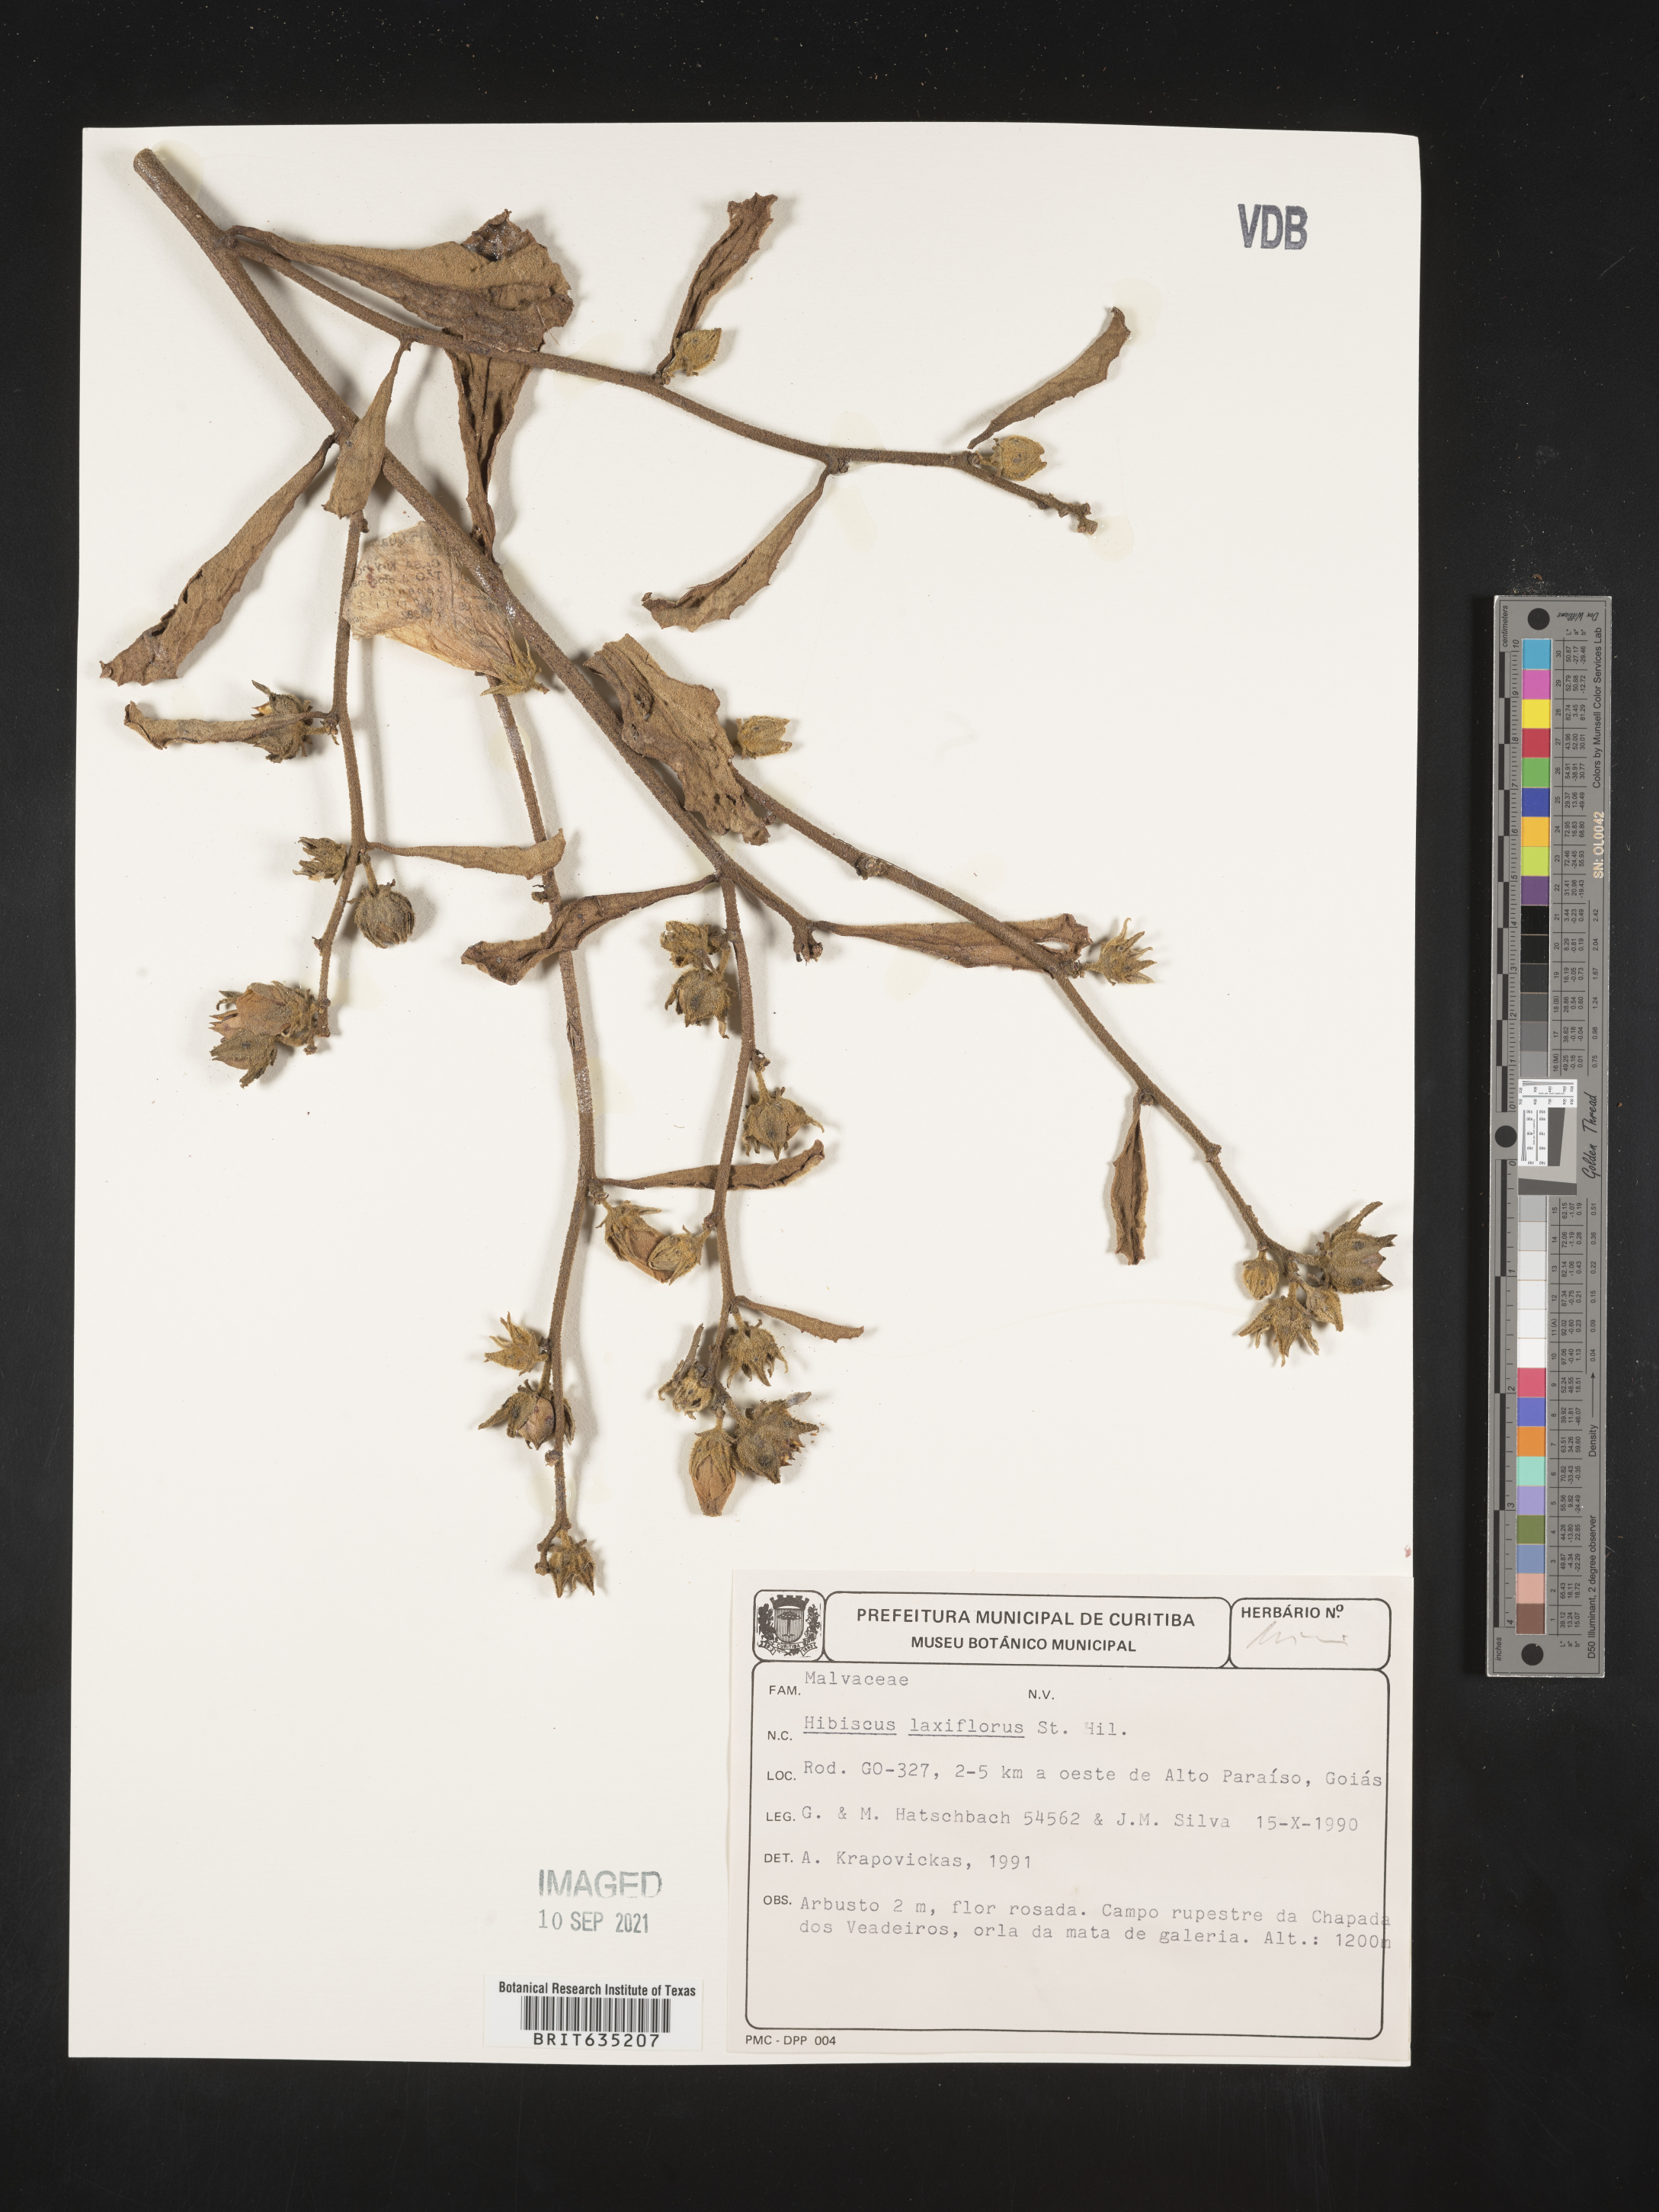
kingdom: Plantae
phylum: Tracheophyta
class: Magnoliopsida
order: Malvales
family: Malvaceae
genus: Hibiscus
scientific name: Hibiscus
